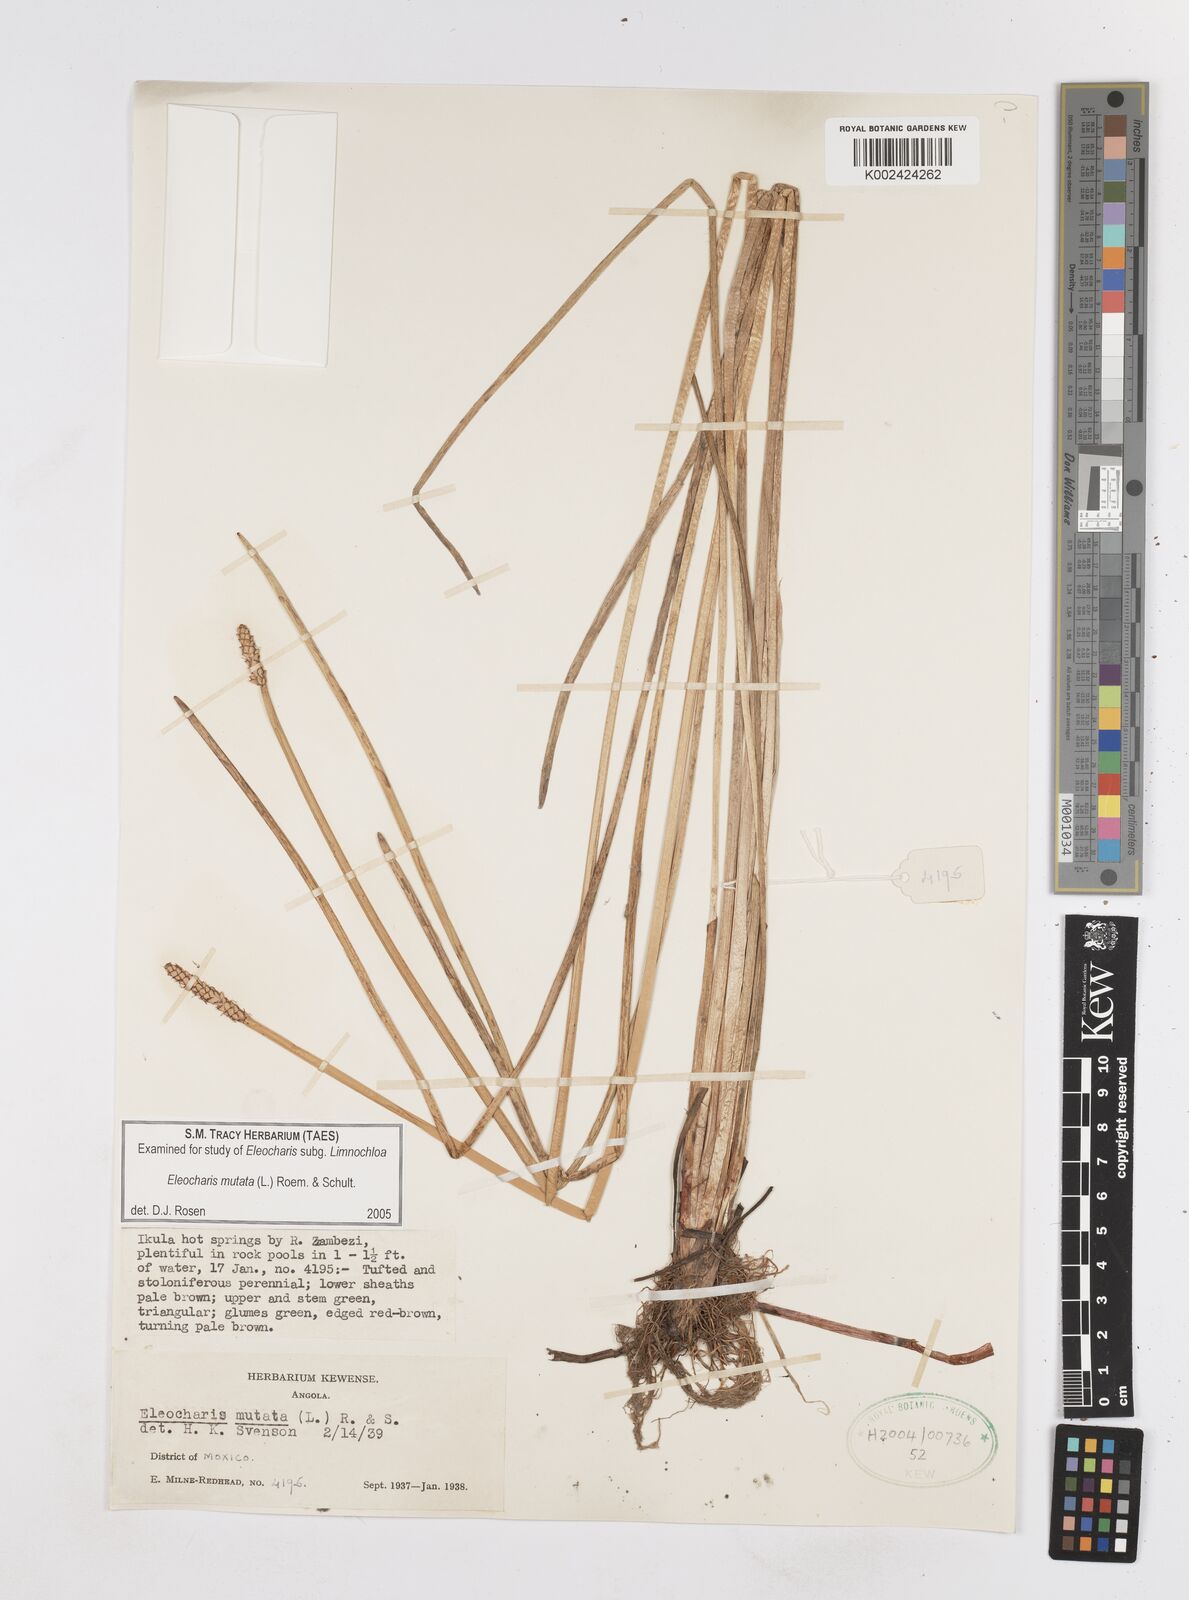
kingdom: Plantae
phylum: Tracheophyta
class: Liliopsida
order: Poales
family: Cyperaceae
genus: Eleocharis
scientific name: Eleocharis mutata
